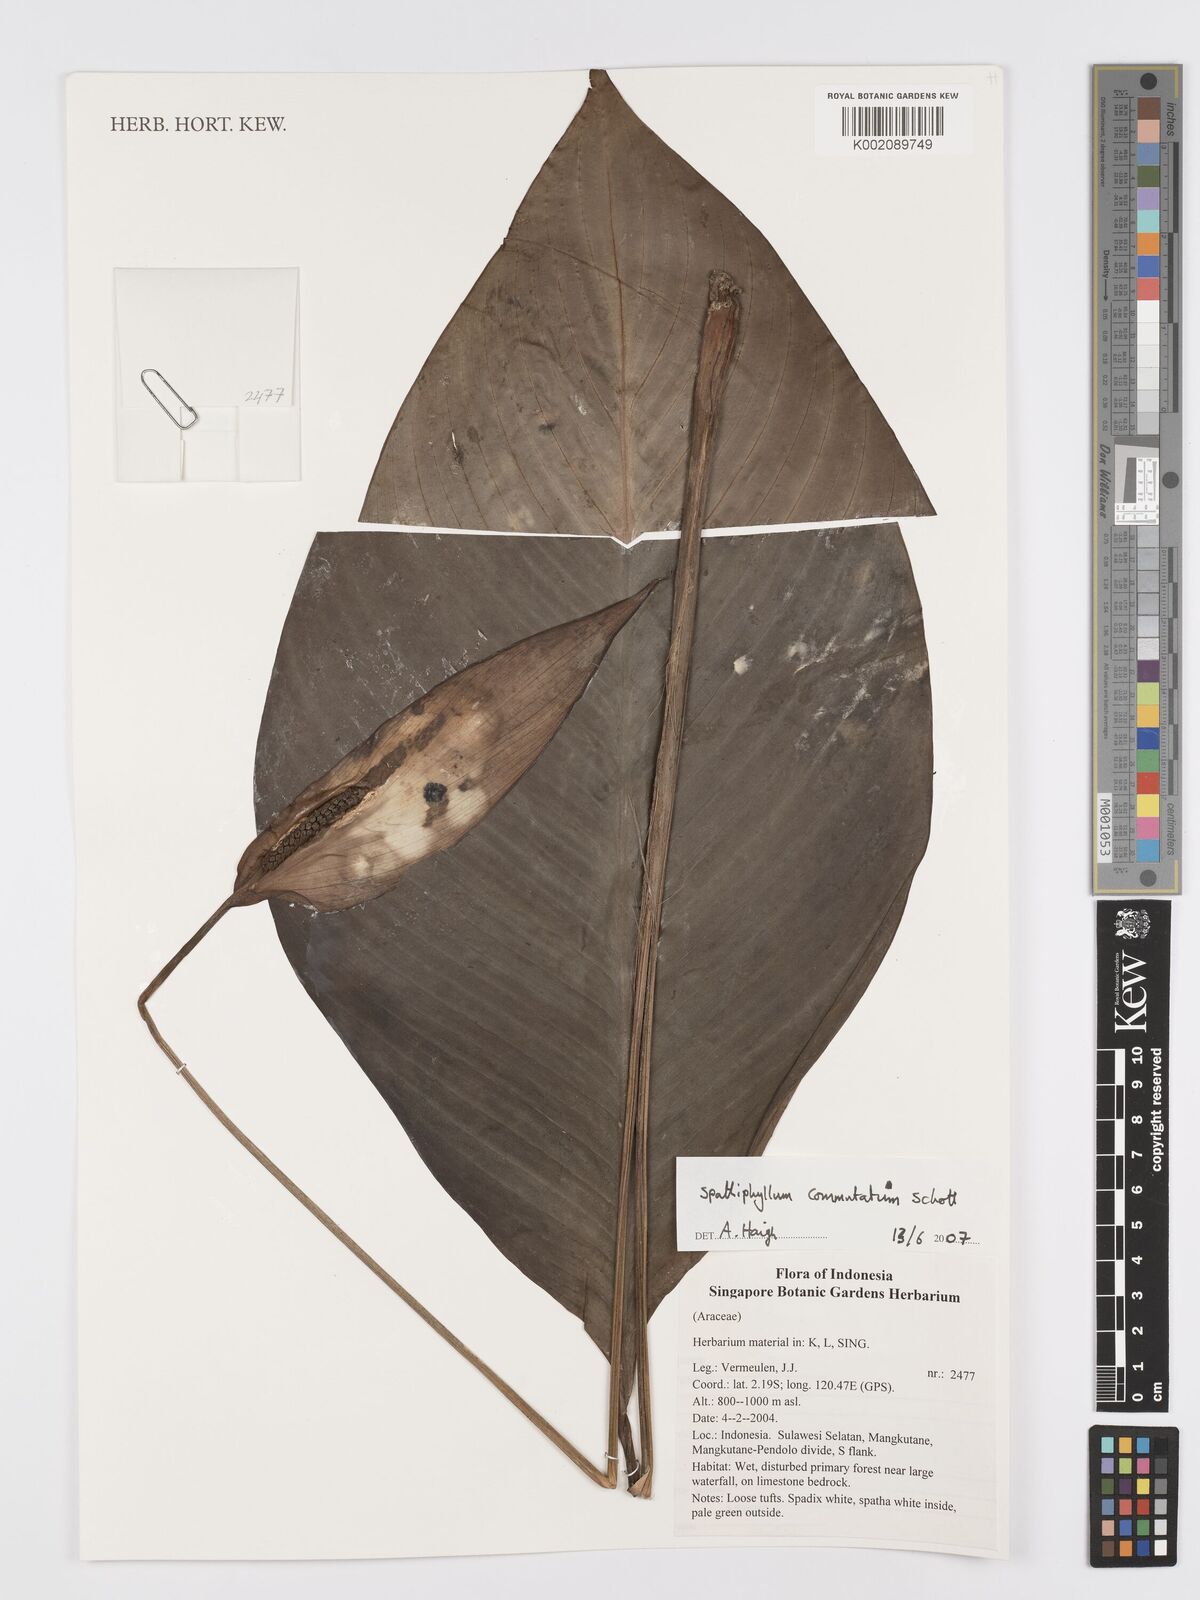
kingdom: Plantae
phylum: Tracheophyta
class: Liliopsida
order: Alismatales
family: Araceae
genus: Spathiphyllum
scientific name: Spathiphyllum commutatum
